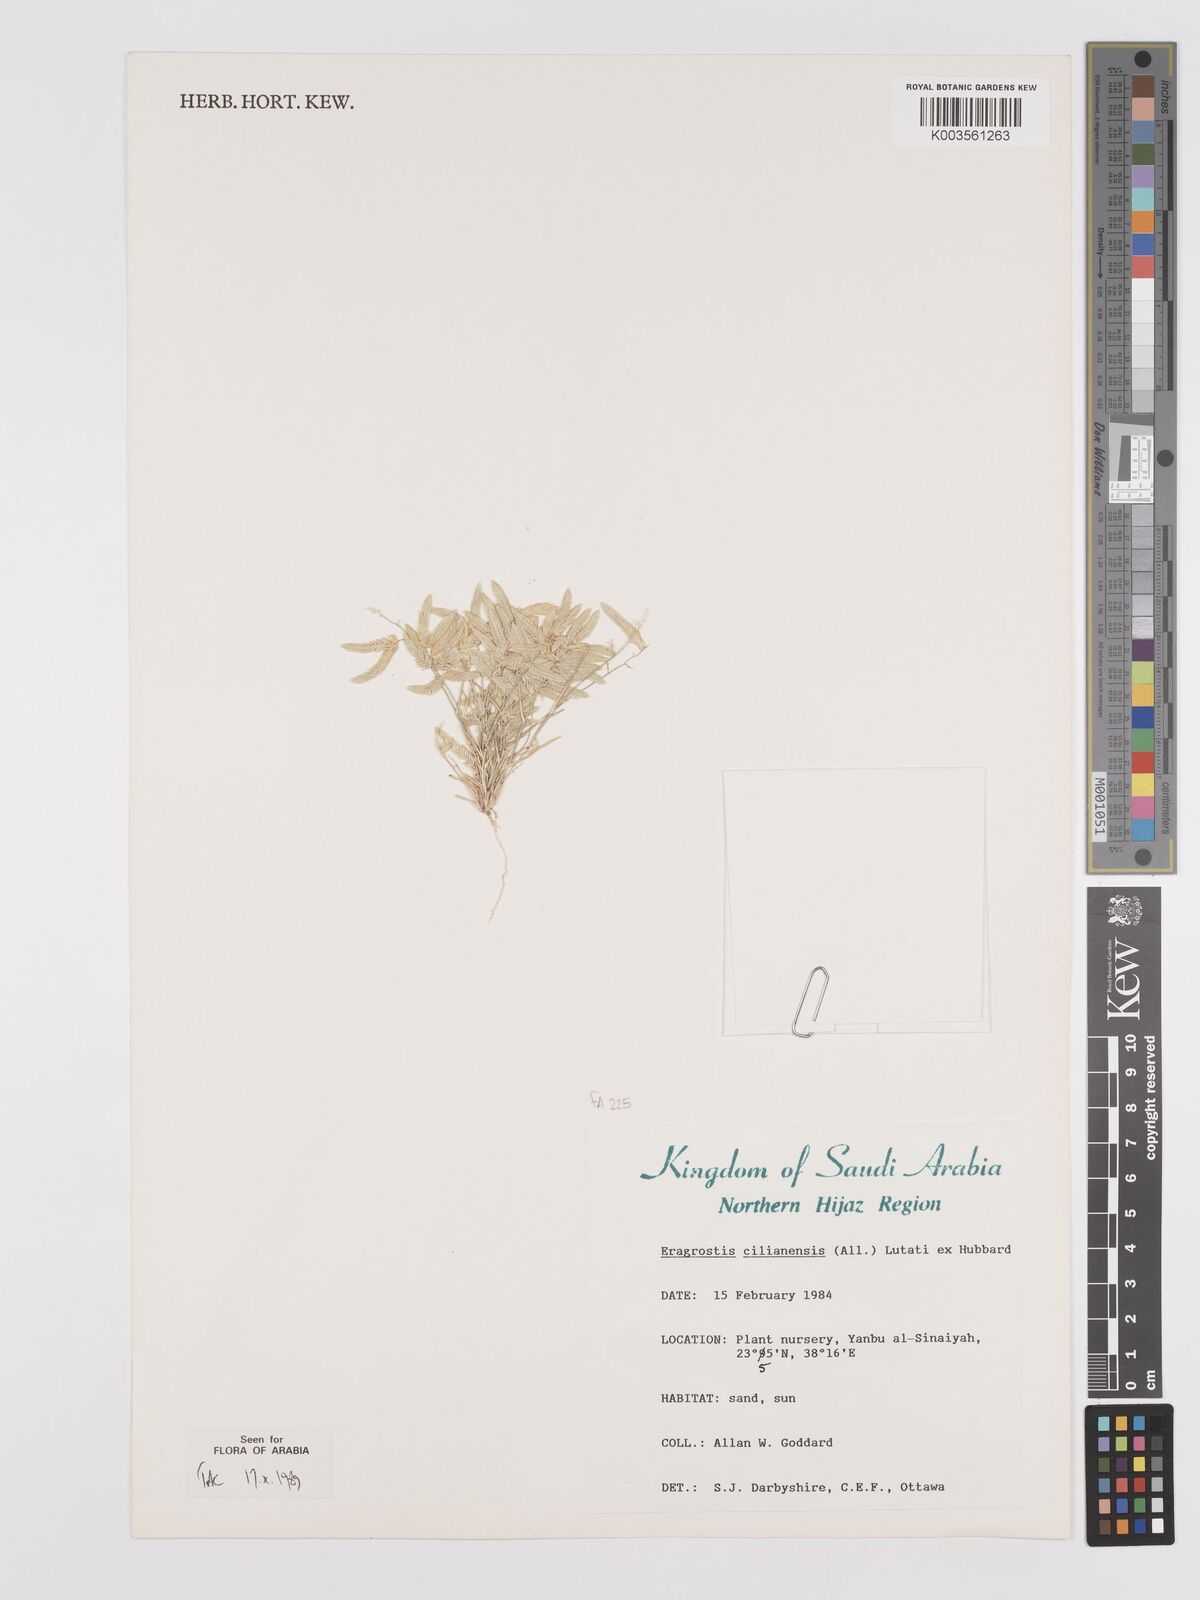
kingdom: Plantae
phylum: Tracheophyta
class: Liliopsida
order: Poales
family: Poaceae
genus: Eragrostis
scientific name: Eragrostis cilianensis
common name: Stinkgrass
